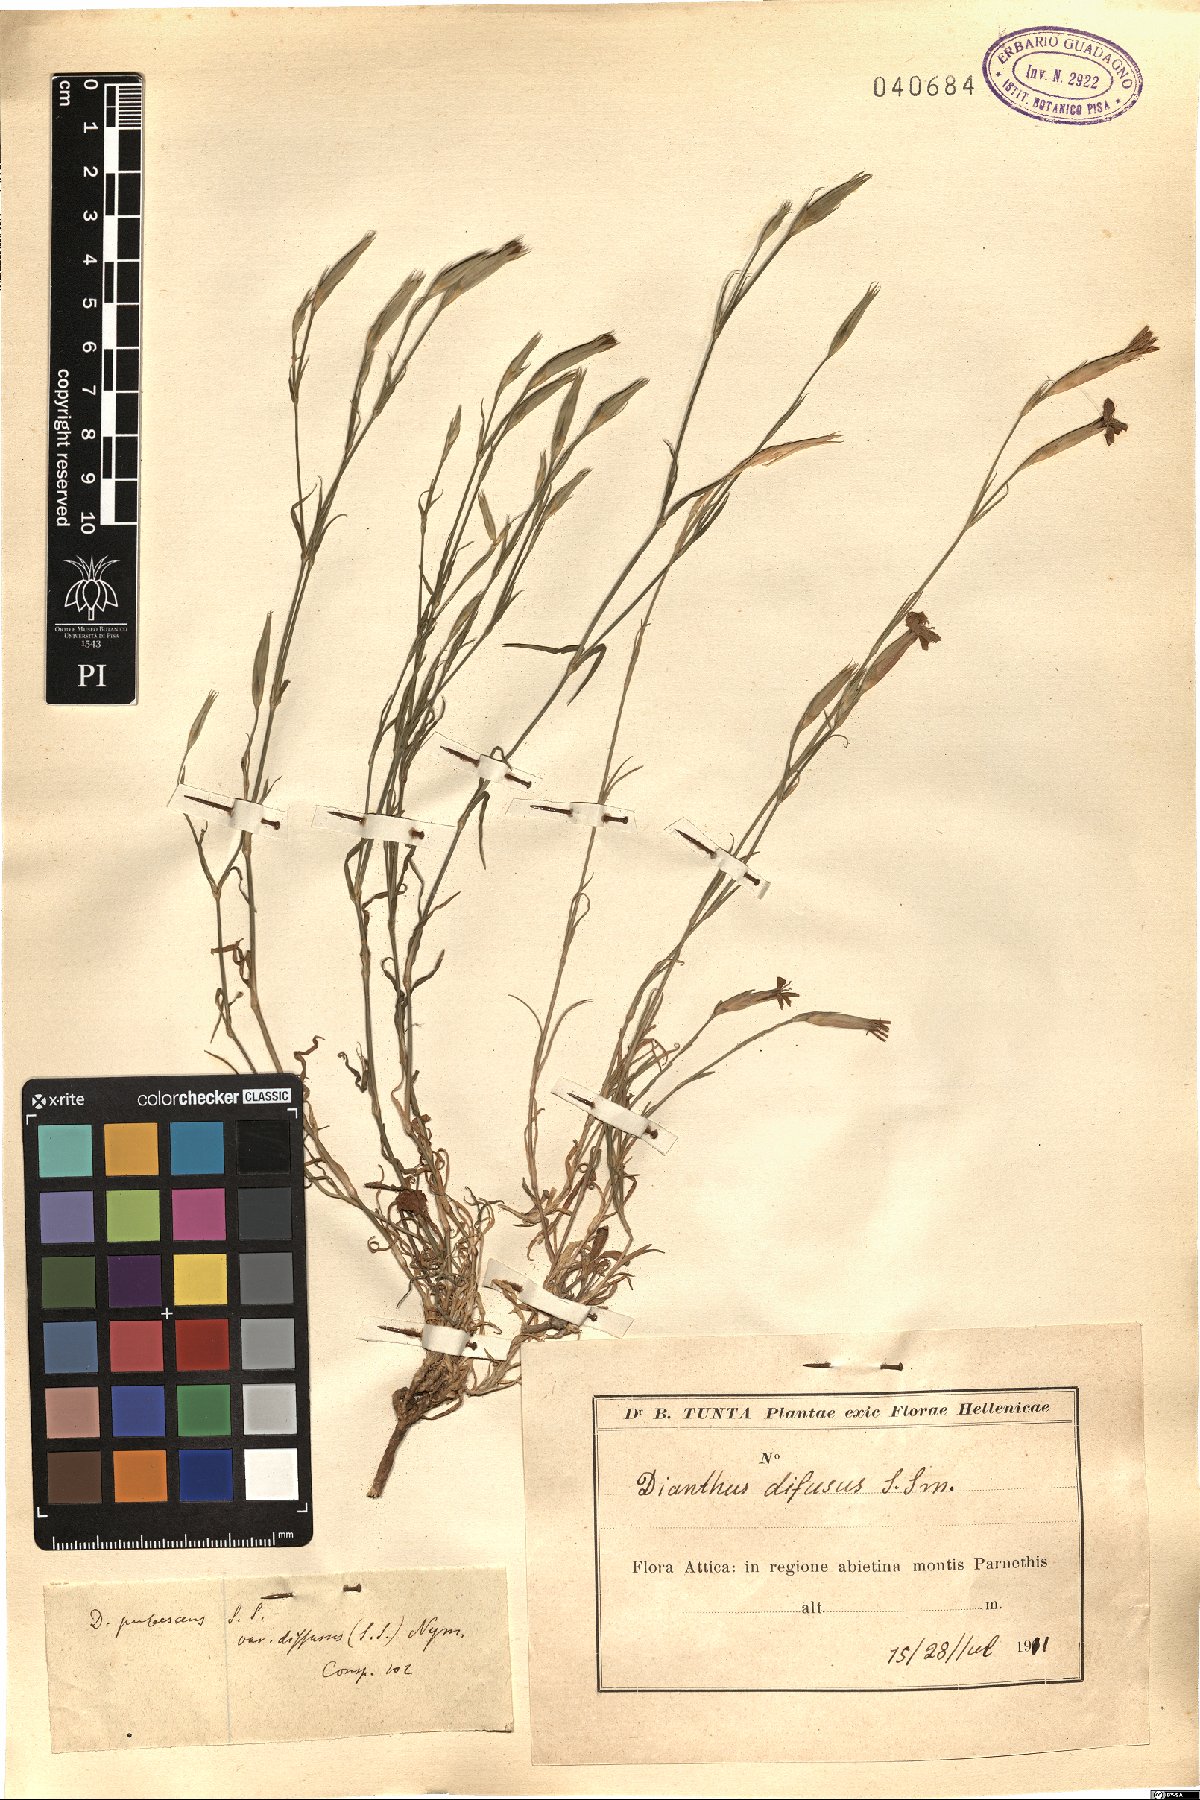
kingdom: Plantae
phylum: Tracheophyta
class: Magnoliopsida
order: Caryophyllales
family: Caryophyllaceae
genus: Dianthus
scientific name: Dianthus diffusus
